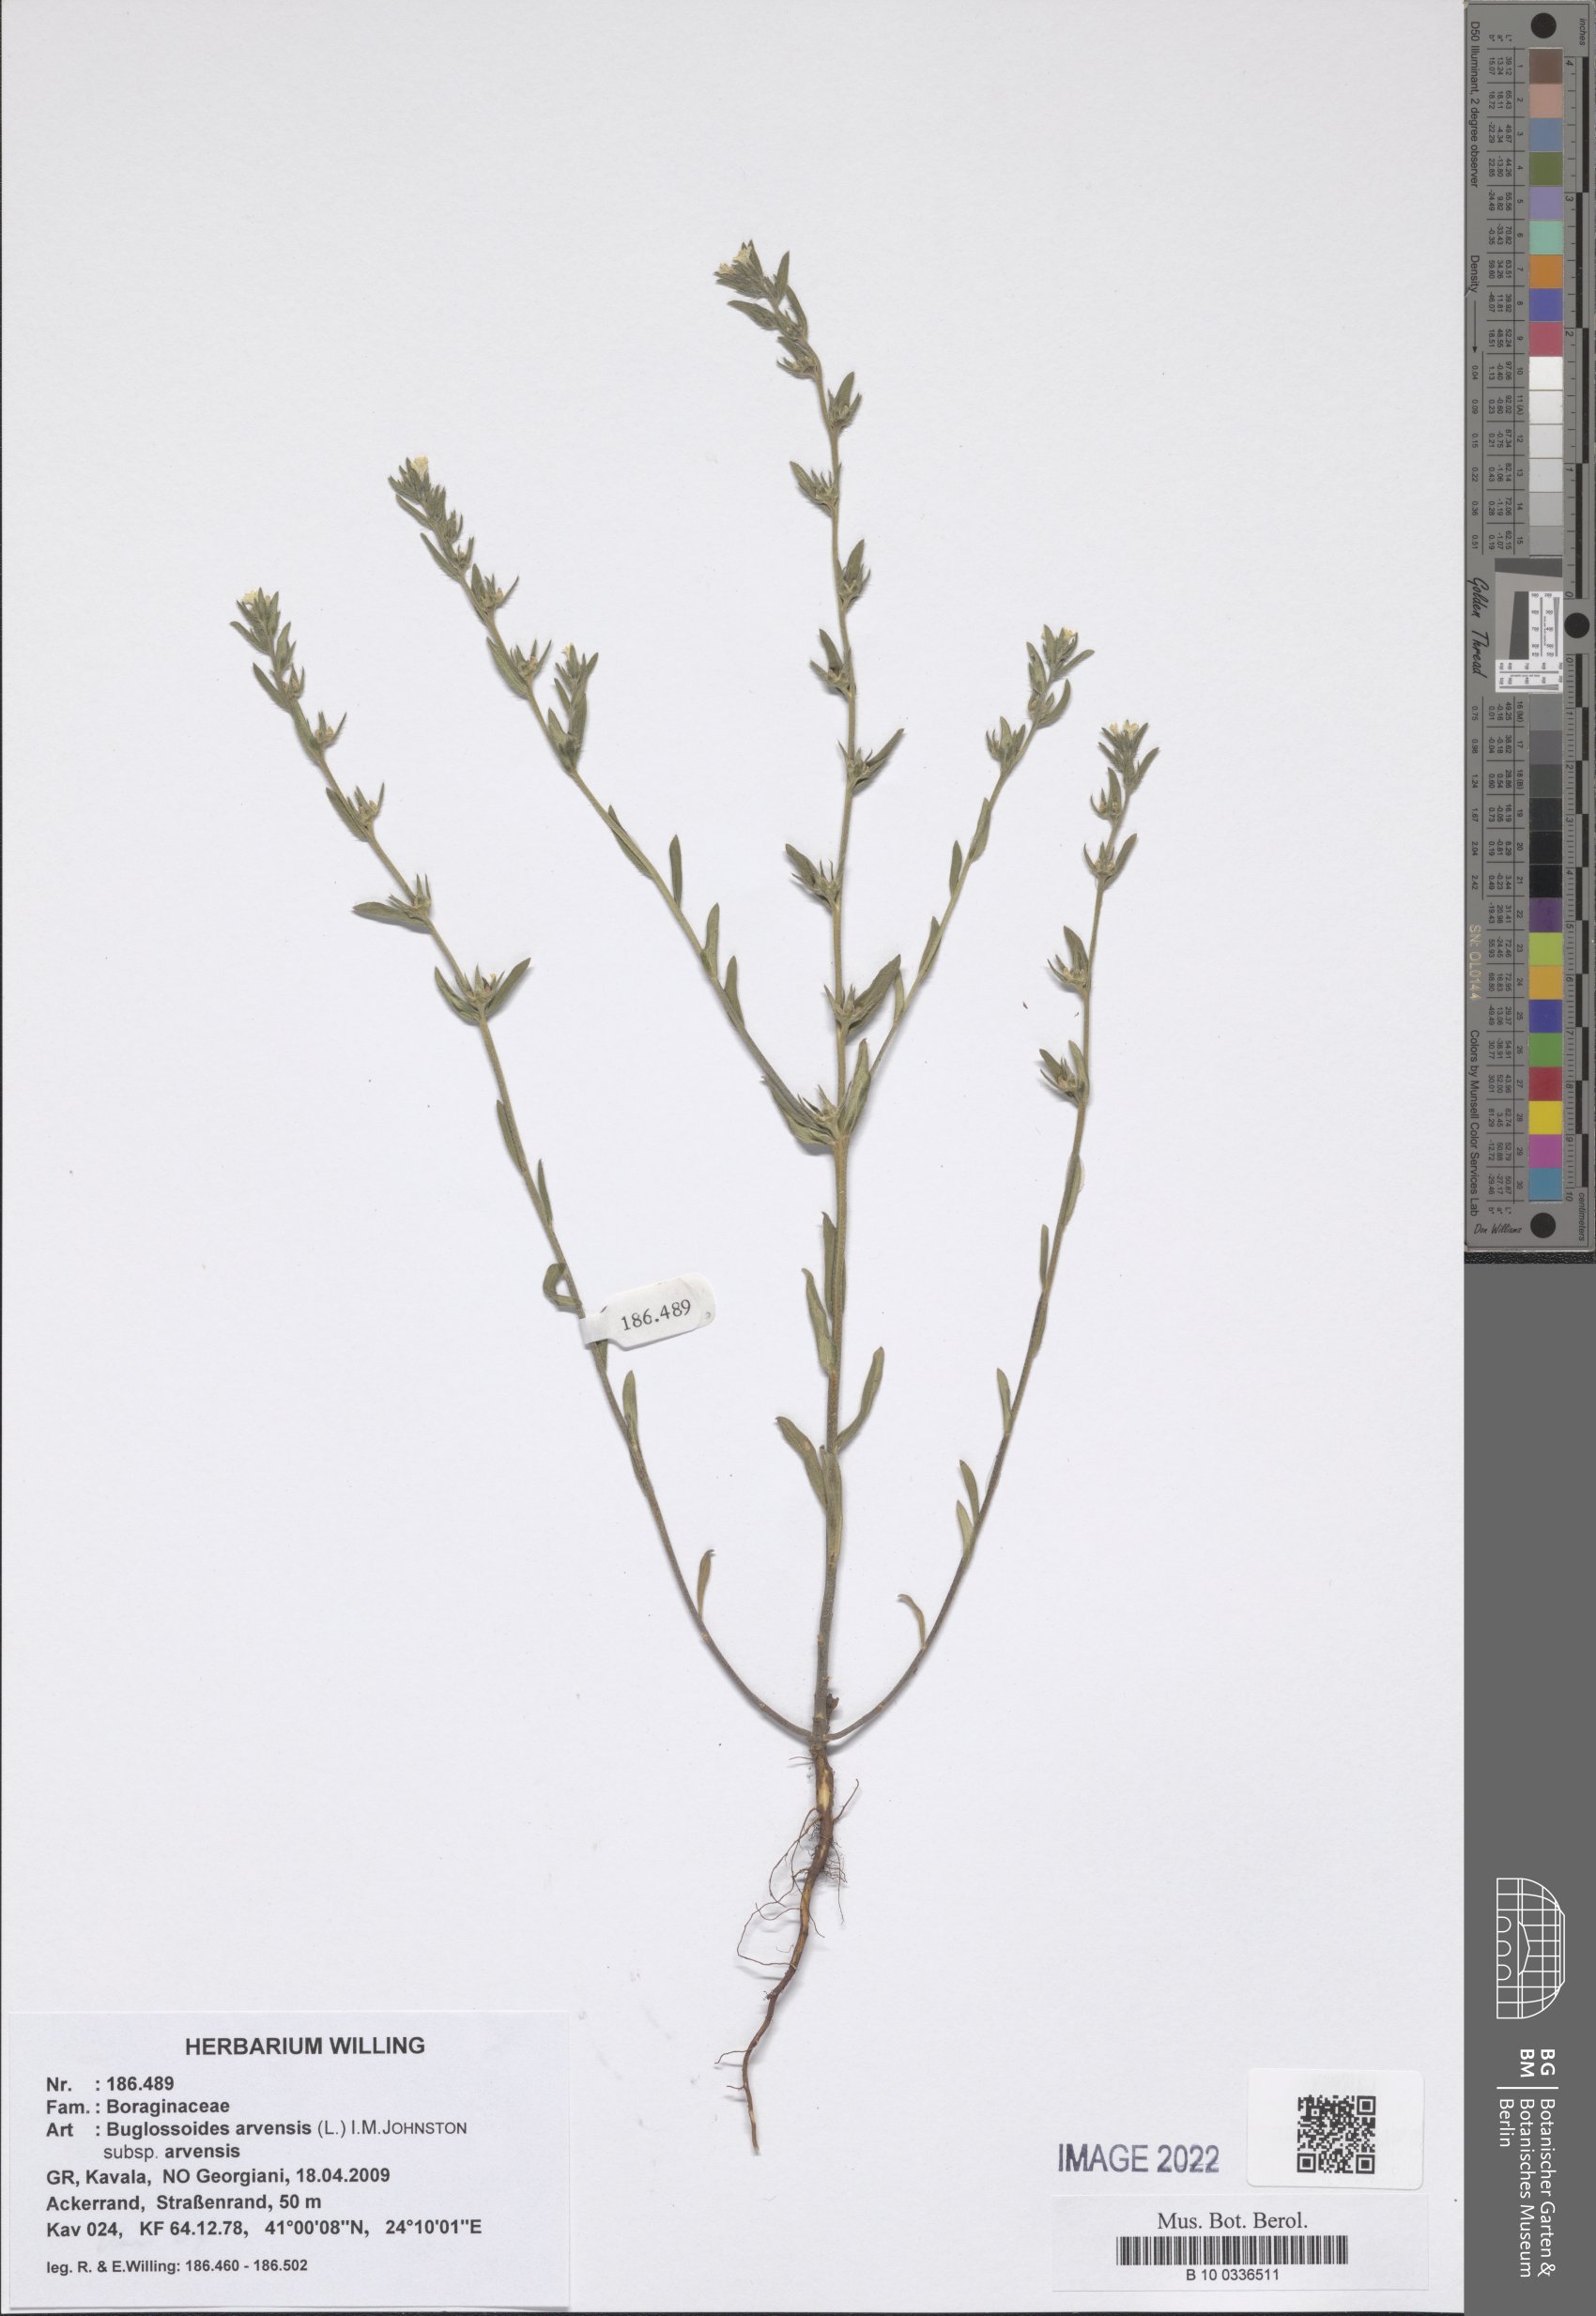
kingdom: Plantae
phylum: Tracheophyta
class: Magnoliopsida
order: Boraginales
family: Boraginaceae
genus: Buglossoides
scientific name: Buglossoides arvensis
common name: Corn gromwell
